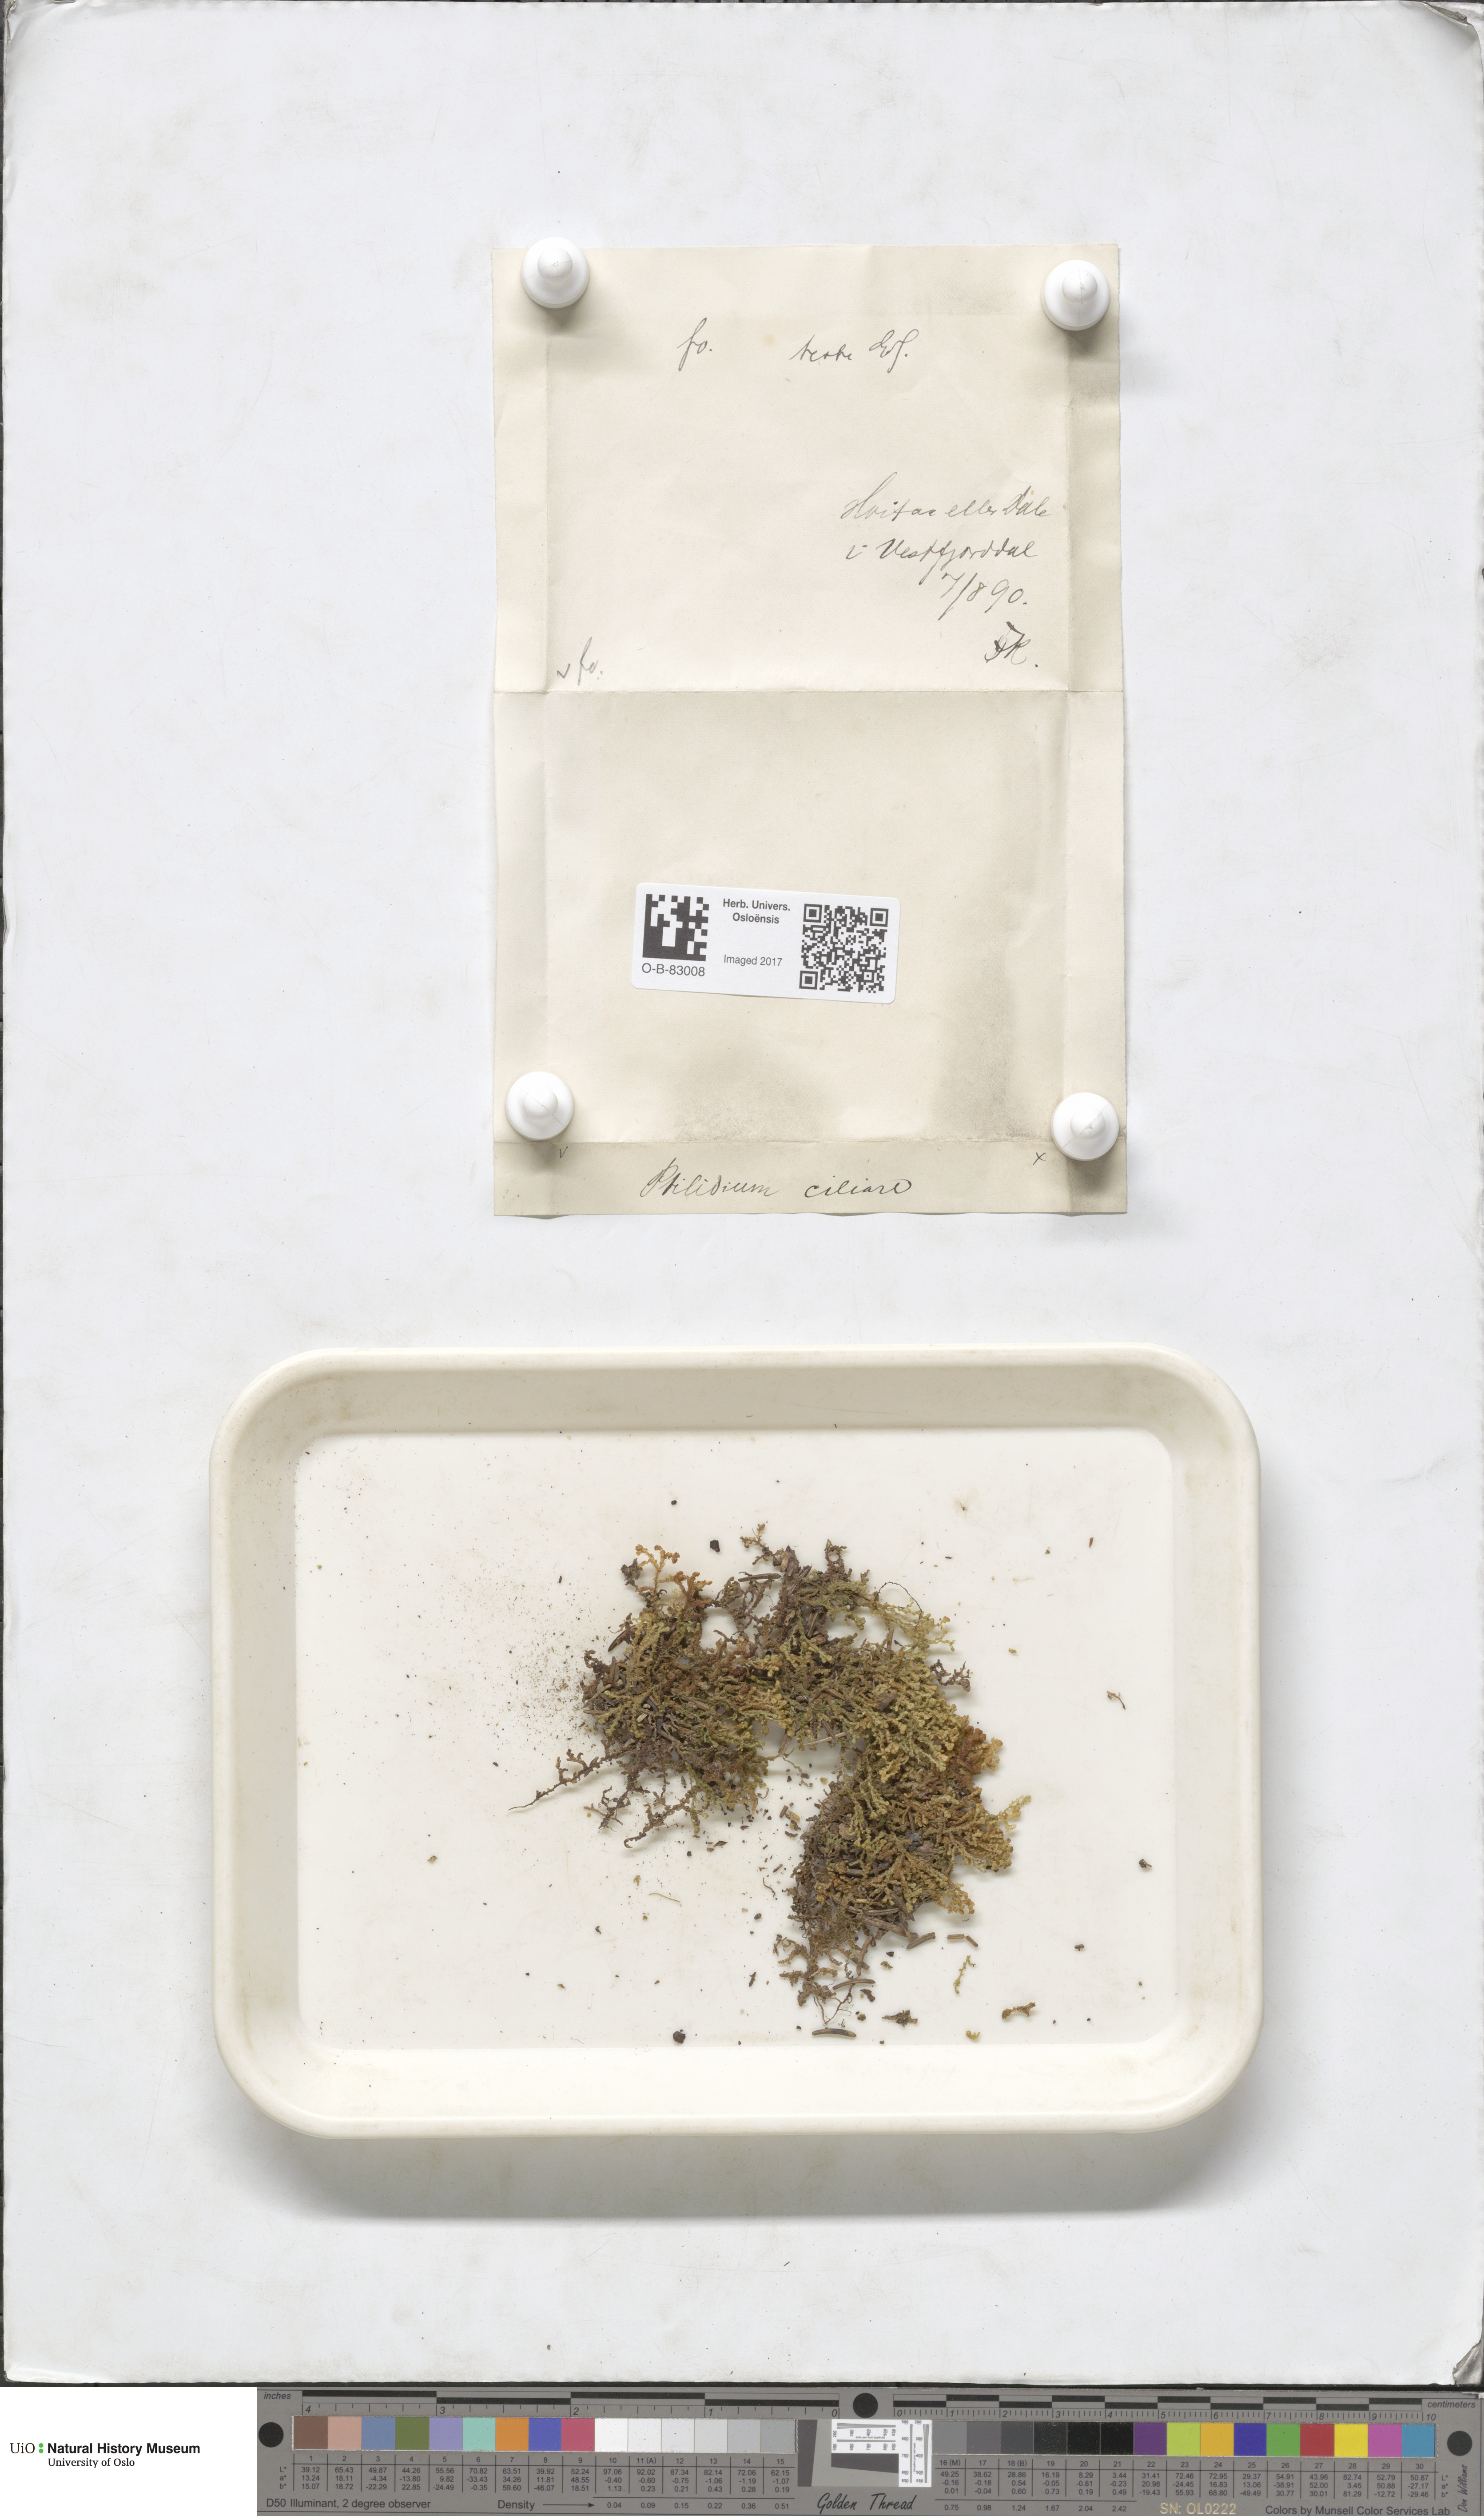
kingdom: Plantae
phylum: Marchantiophyta
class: Jungermanniopsida
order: Ptilidiales
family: Ptilidiaceae
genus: Ptilidium
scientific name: Ptilidium ciliare
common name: Ciliate fringewort
